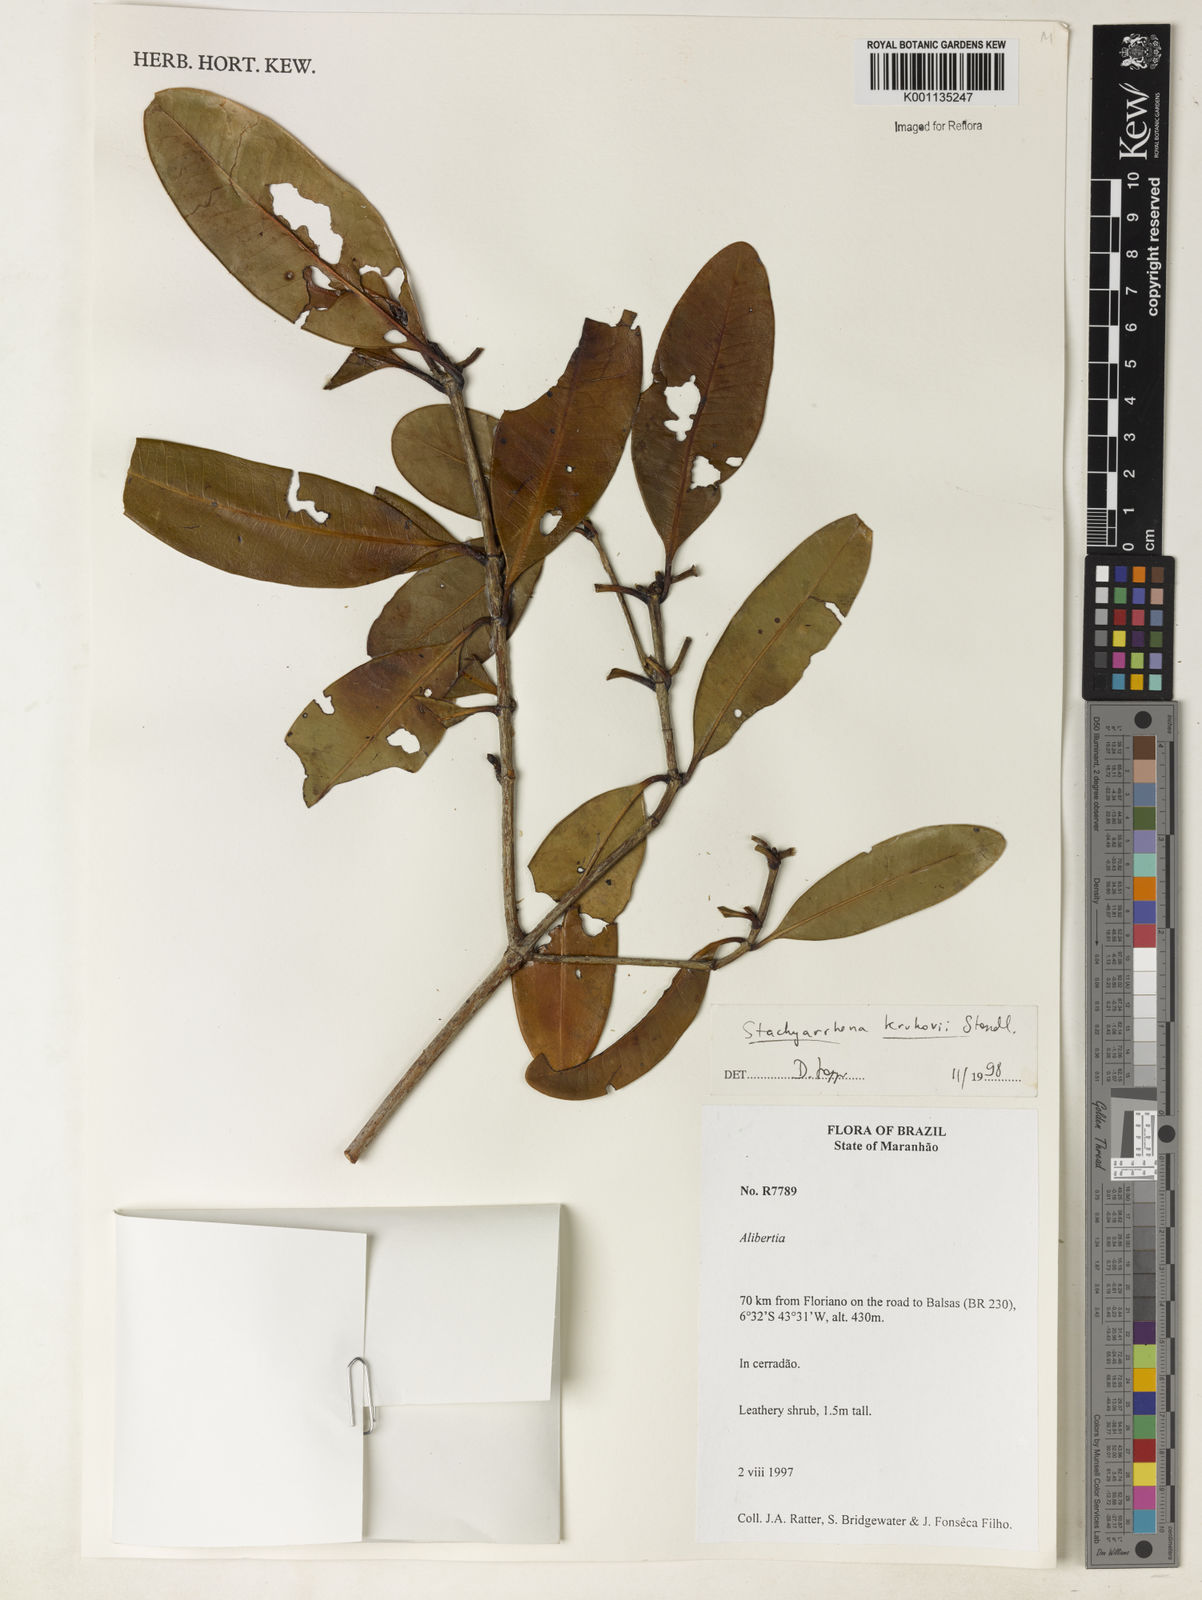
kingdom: Plantae
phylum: Tracheophyta
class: Magnoliopsida
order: Gentianales
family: Rubiaceae
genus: Stachyarrhena
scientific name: Stachyarrhena
